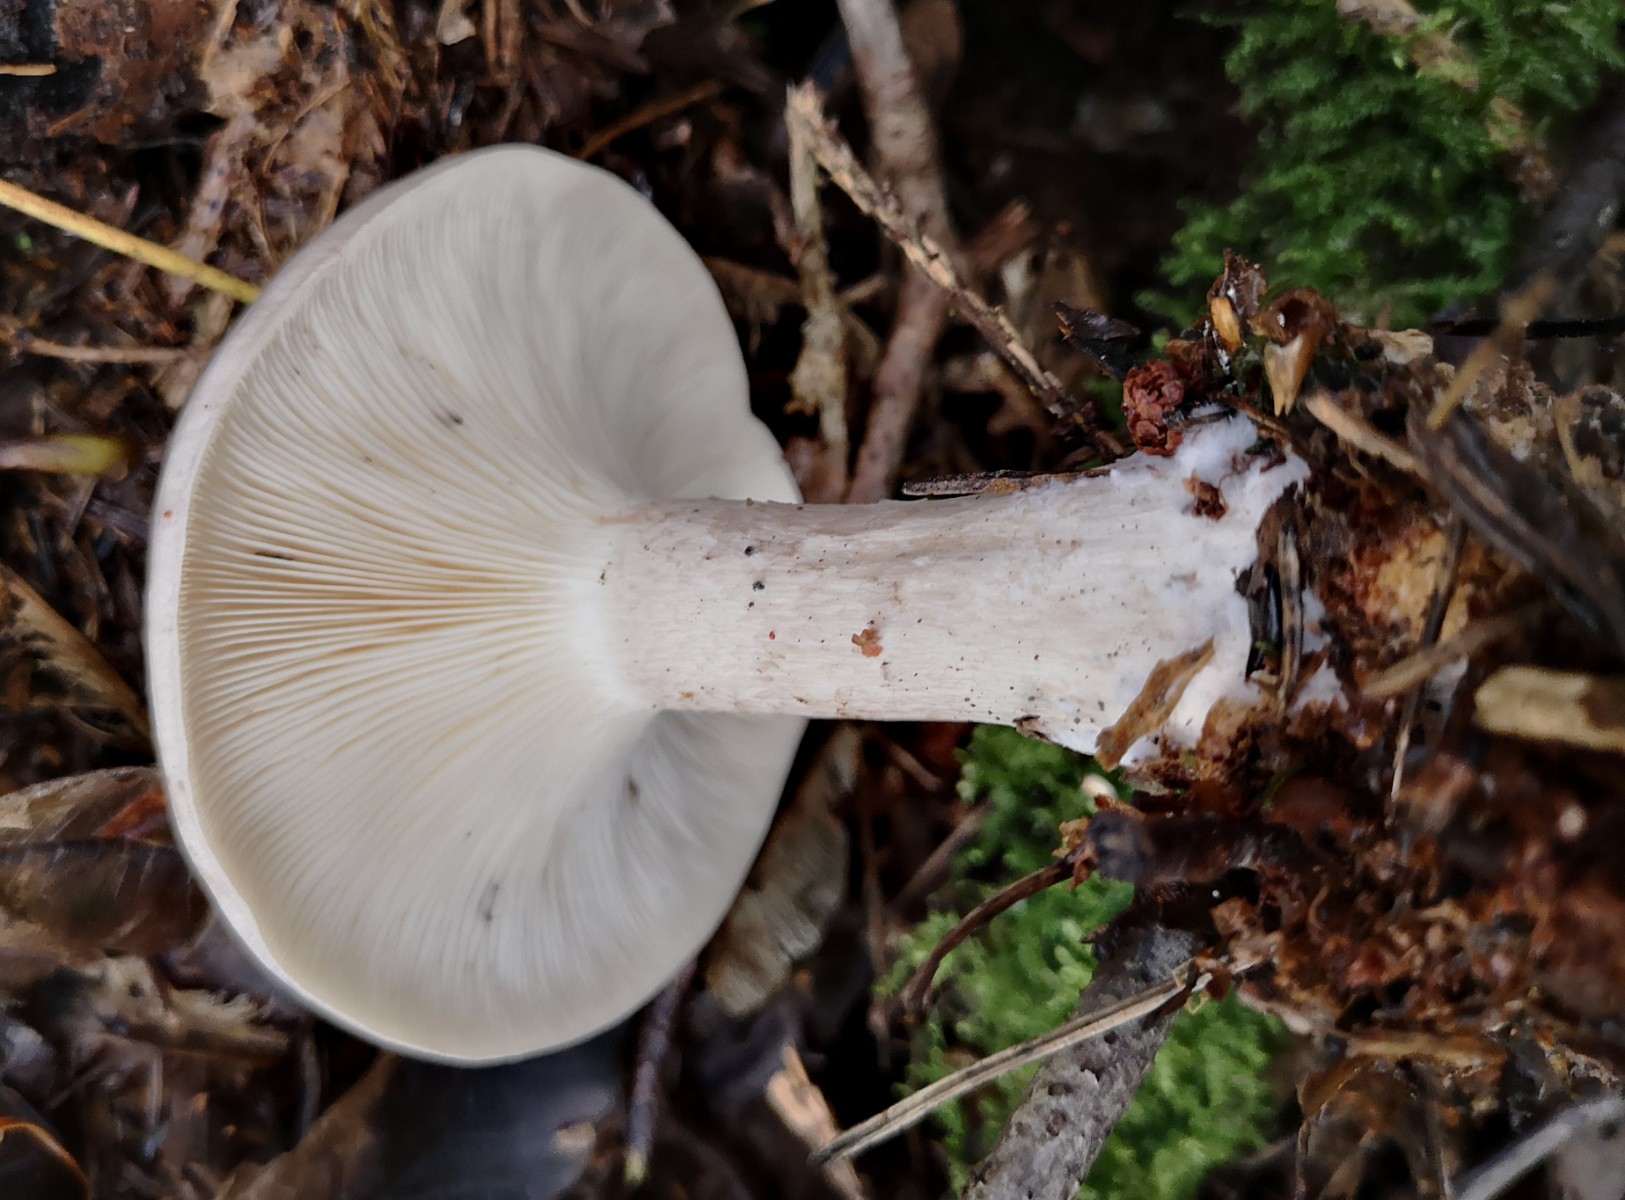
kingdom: Fungi
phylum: Basidiomycota
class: Agaricomycetes
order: Agaricales
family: Tricholomataceae
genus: Clitocybe
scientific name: Clitocybe nebularis
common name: tåge-tragthat
